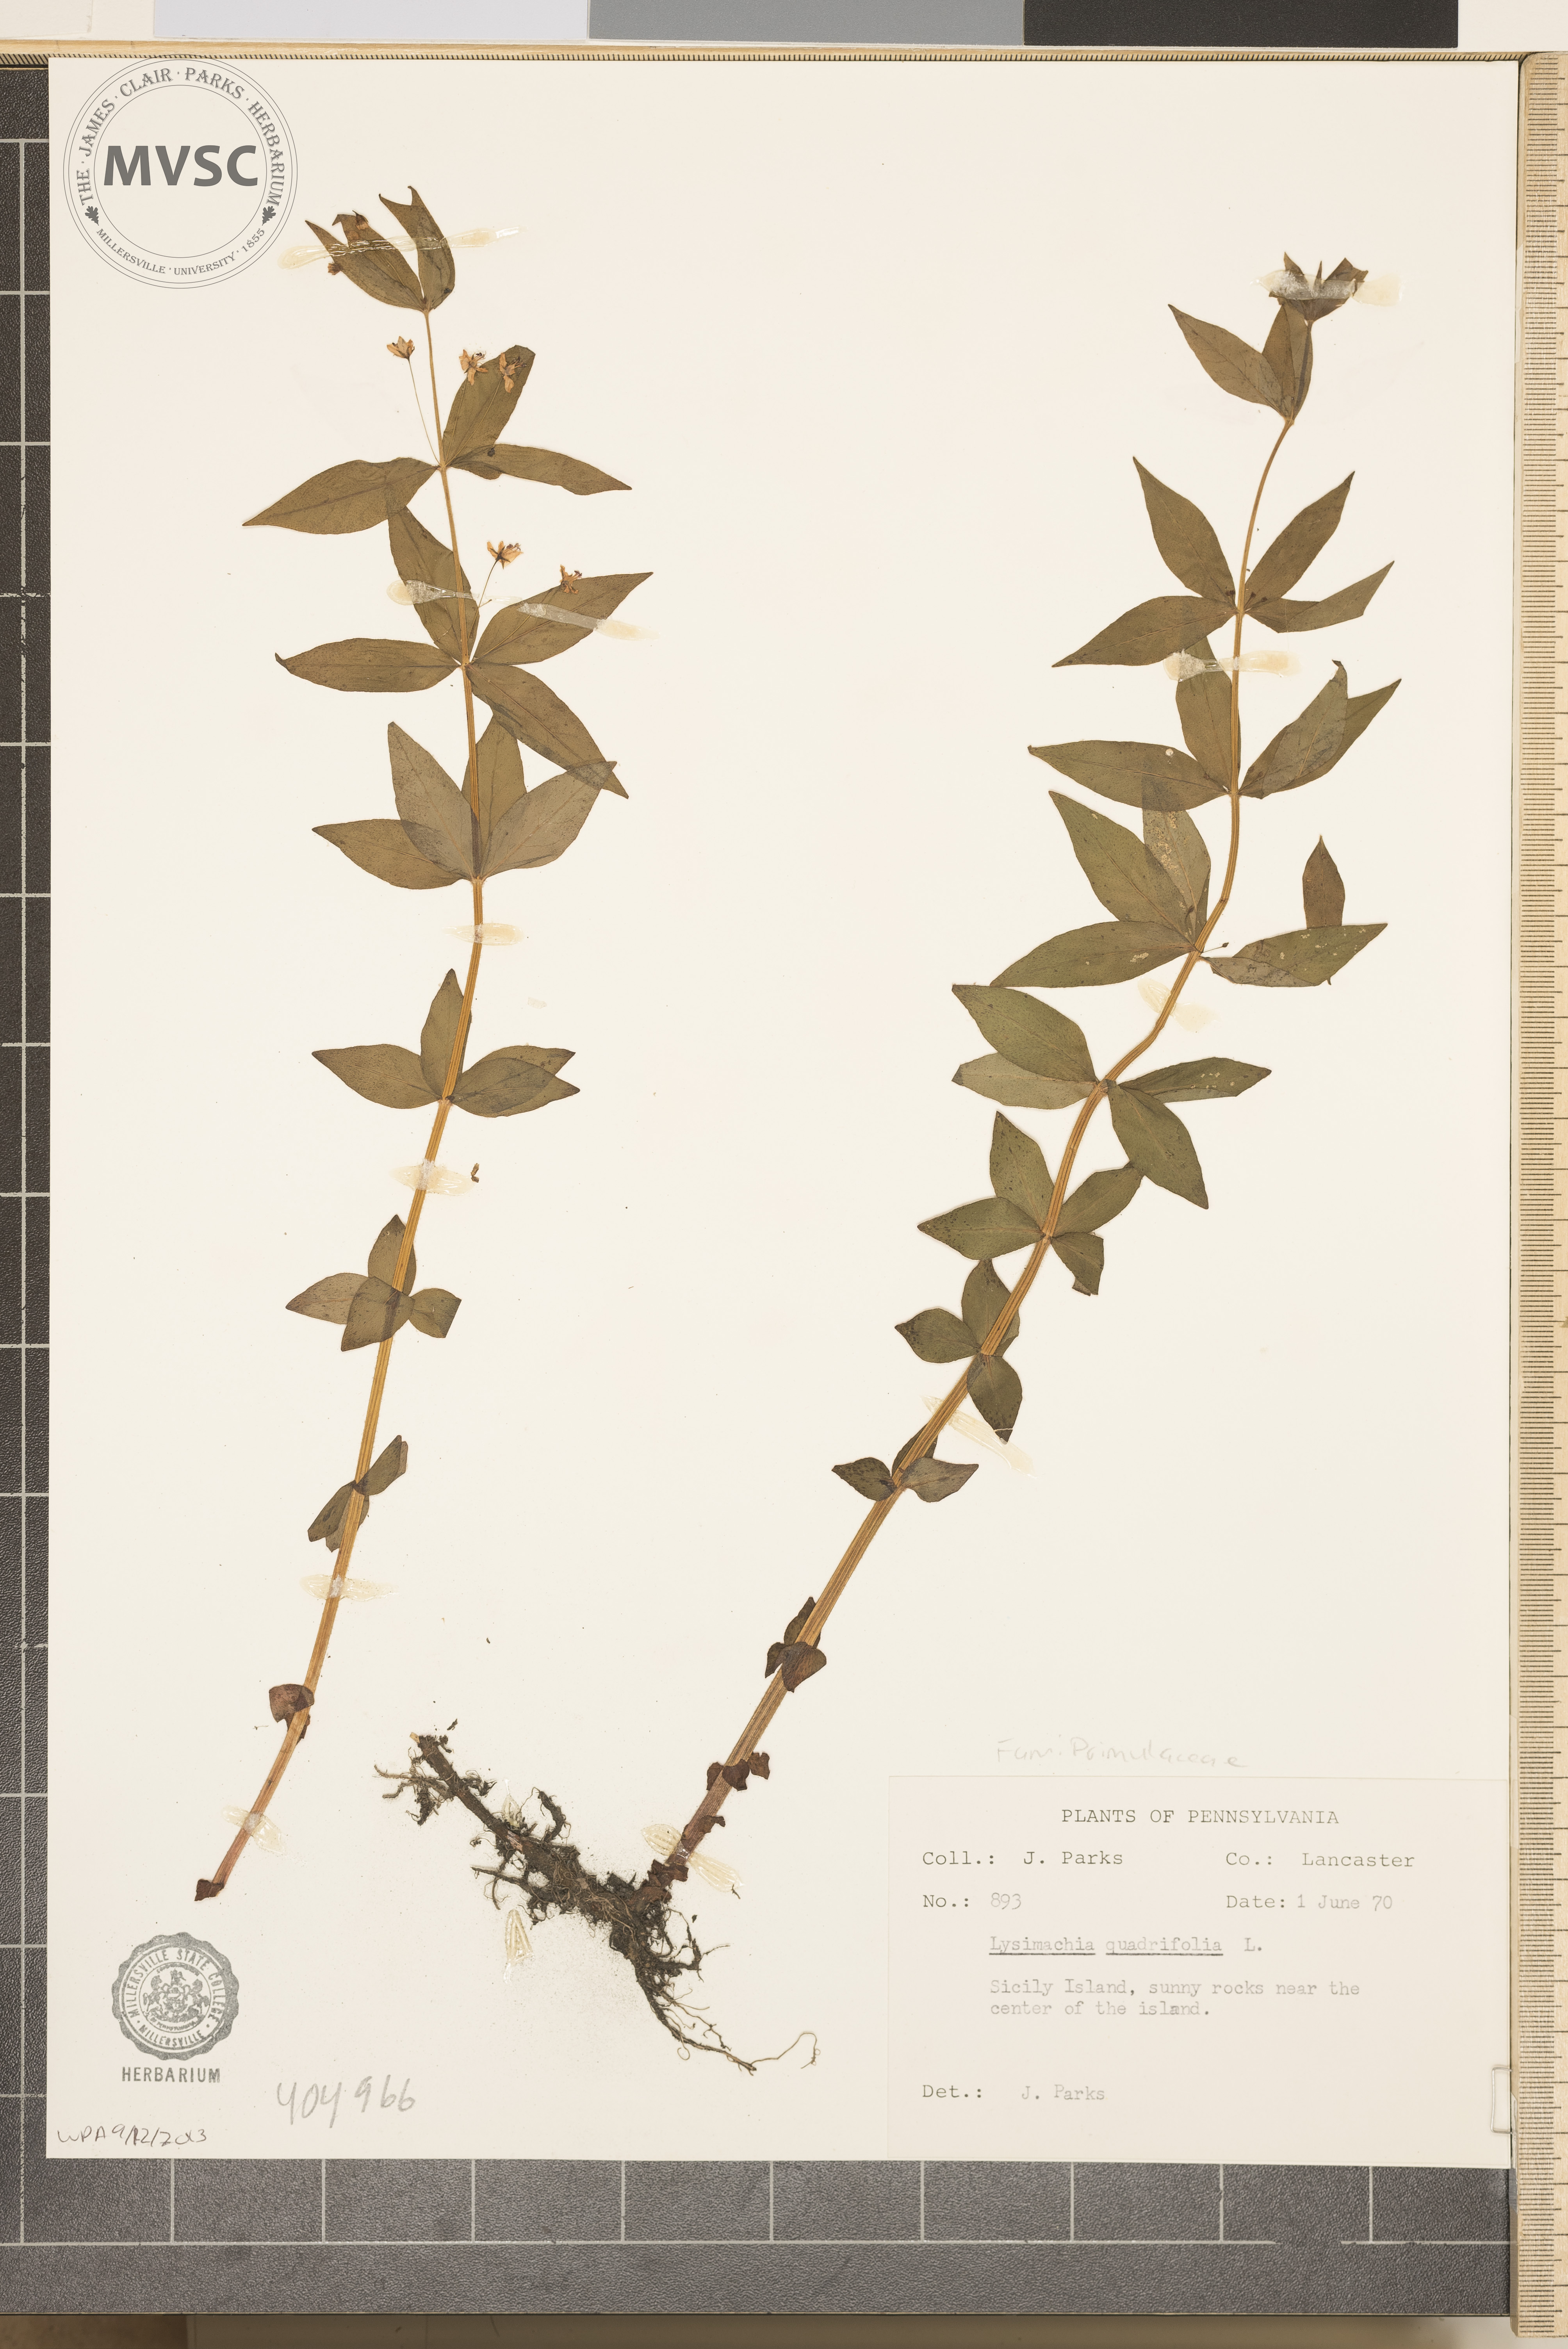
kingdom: Plantae
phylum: Tracheophyta
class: Magnoliopsida
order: Ericales
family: Primulaceae
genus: Lysimachia
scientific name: Lysimachia quadrifolia
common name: Whorled loosestrife
